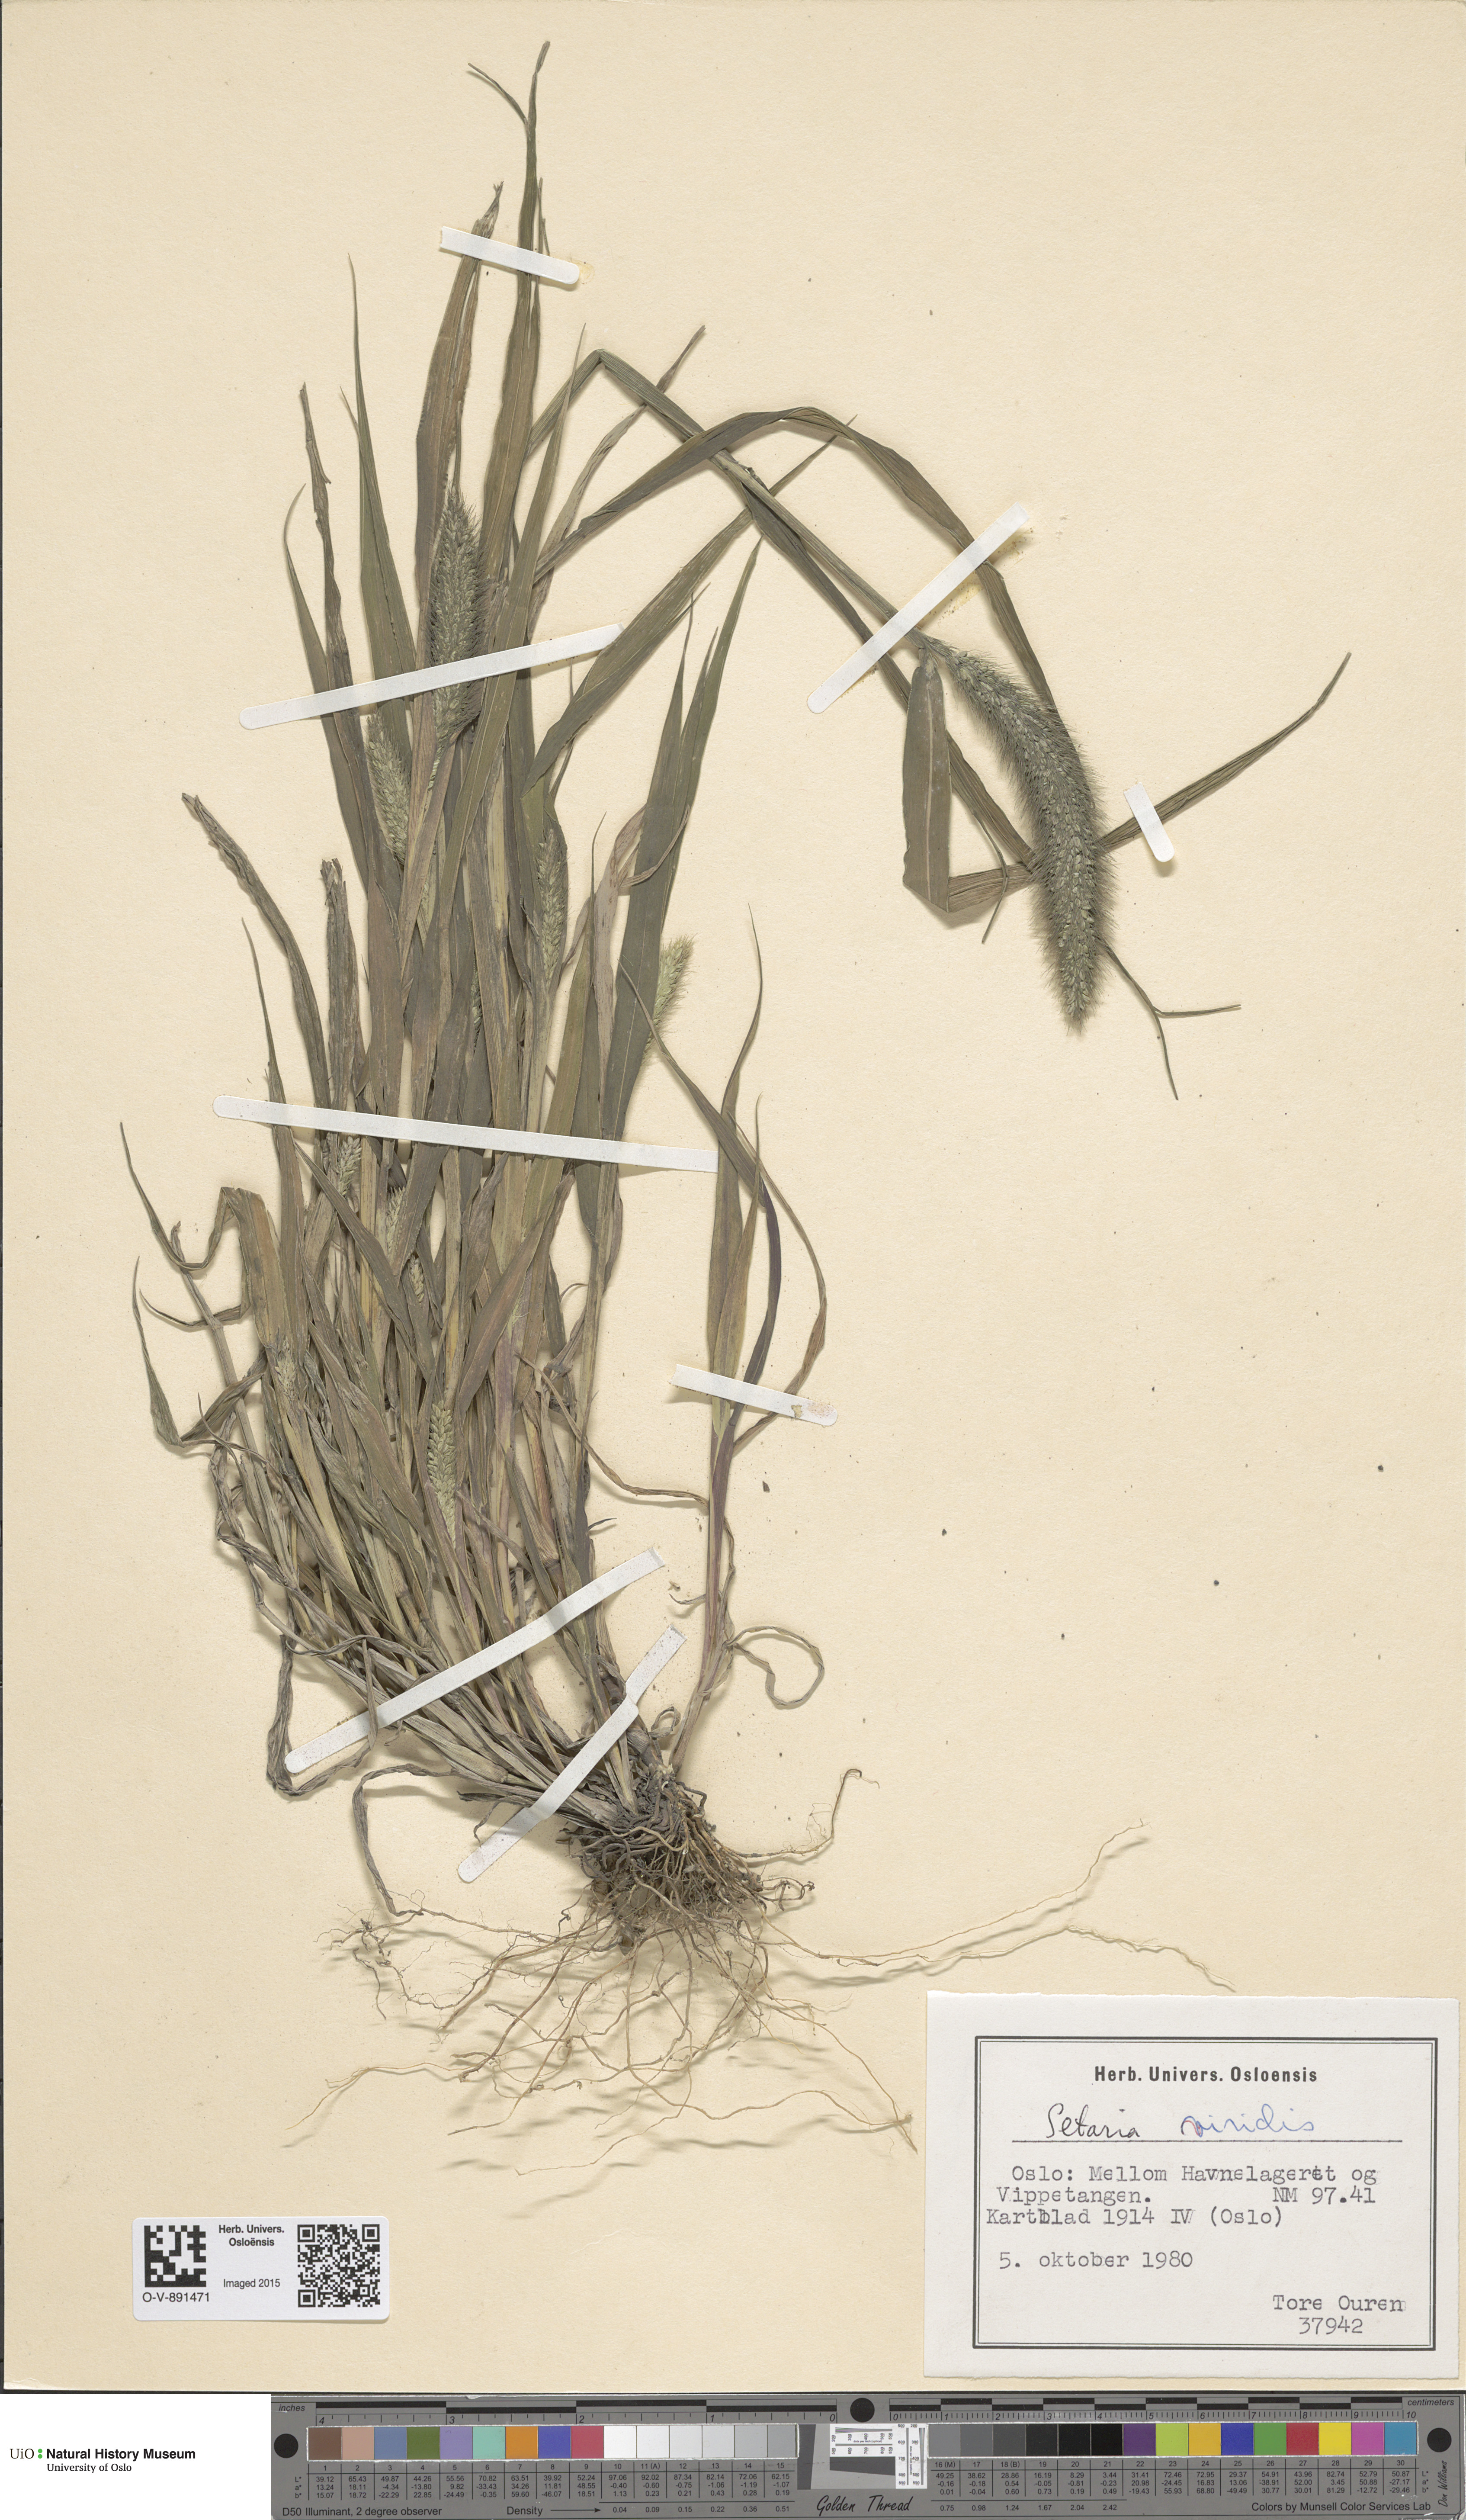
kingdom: Plantae
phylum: Tracheophyta
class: Liliopsida
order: Poales
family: Poaceae
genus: Setaria
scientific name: Setaria viridis
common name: Green bristlegrass
